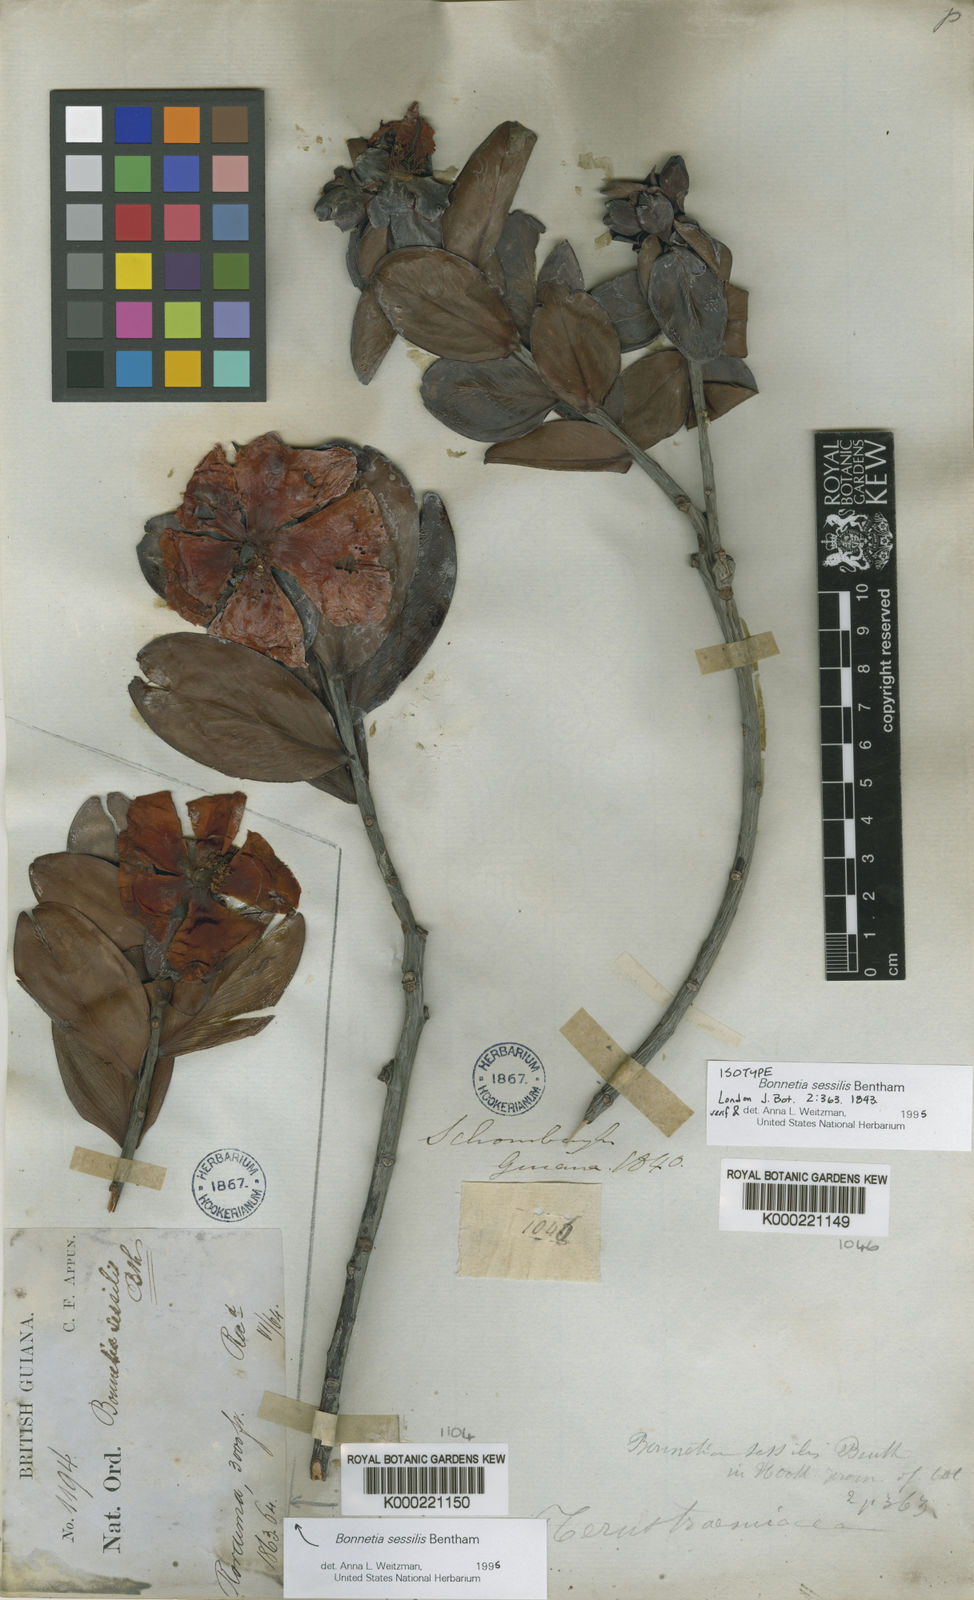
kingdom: Plantae
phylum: Tracheophyta
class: Magnoliopsida
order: Malpighiales
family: Bonnetiaceae
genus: Bonnetia
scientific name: Bonnetia sessilis
